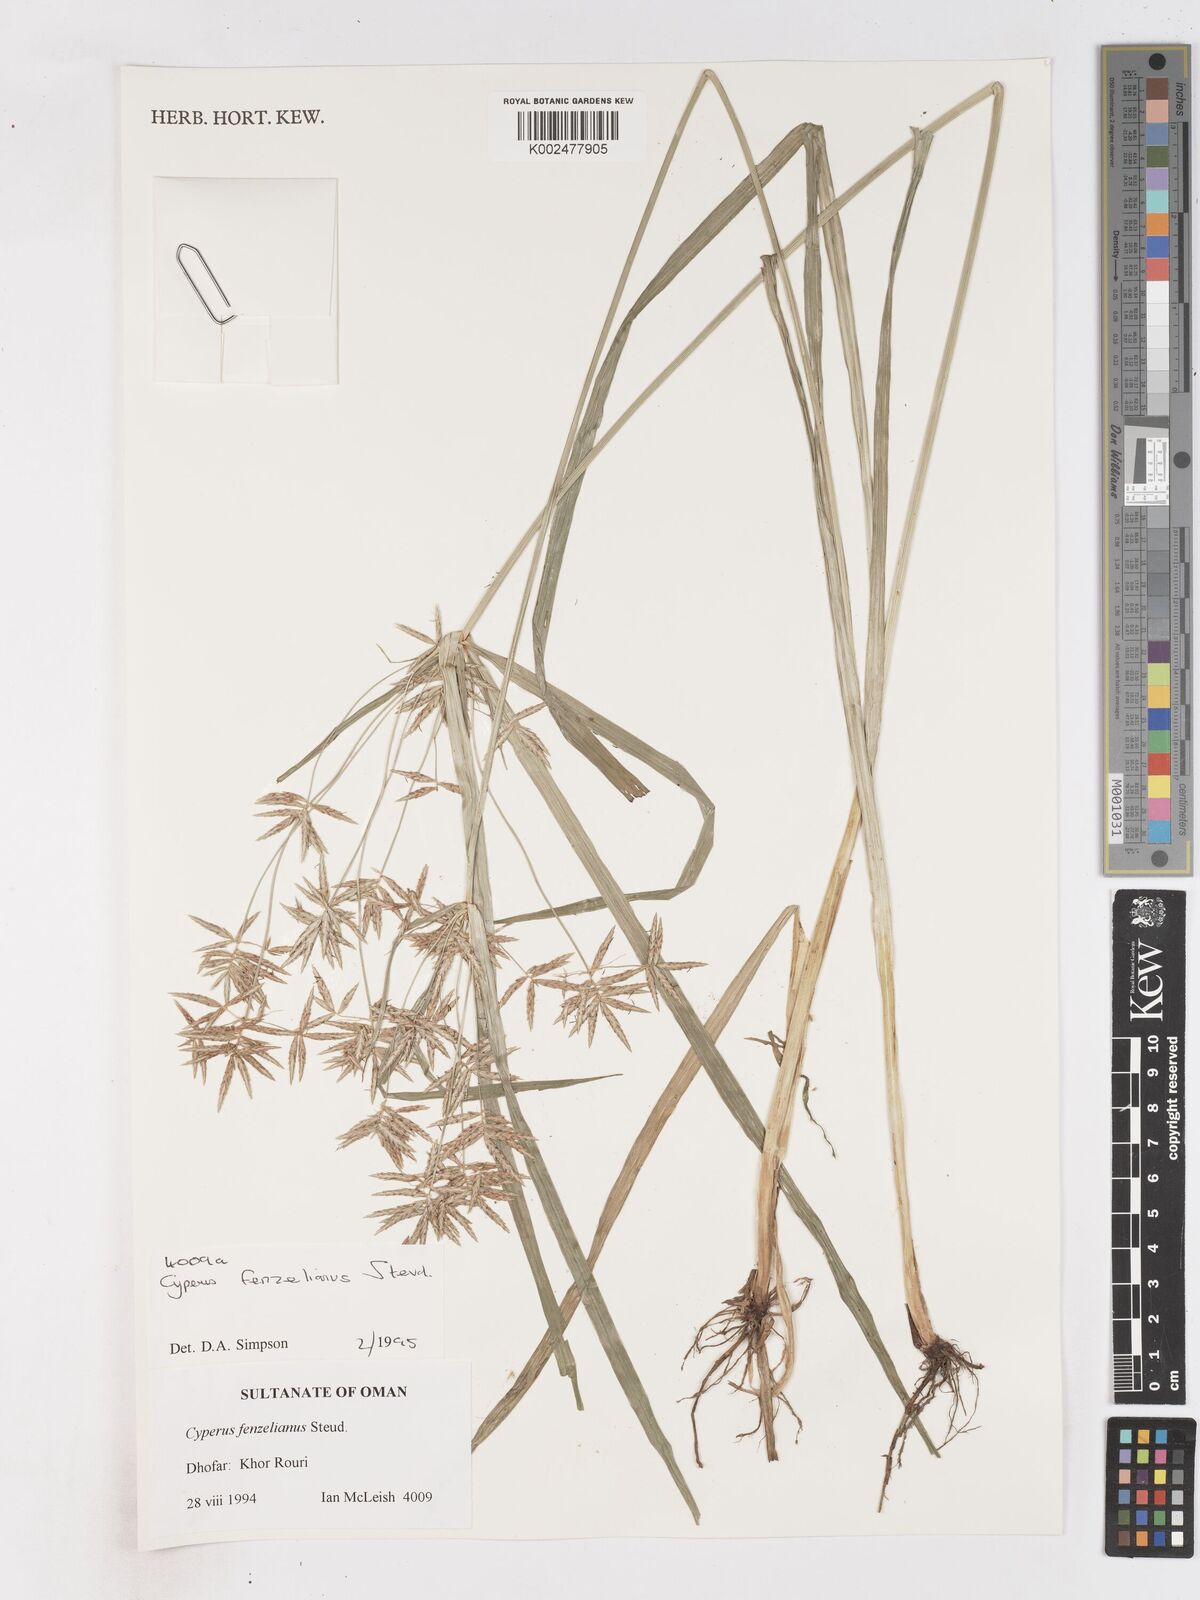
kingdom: Plantae
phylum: Tracheophyta
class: Liliopsida
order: Poales
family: Cyperaceae
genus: Cyperus
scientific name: Cyperus longus
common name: Galingale
